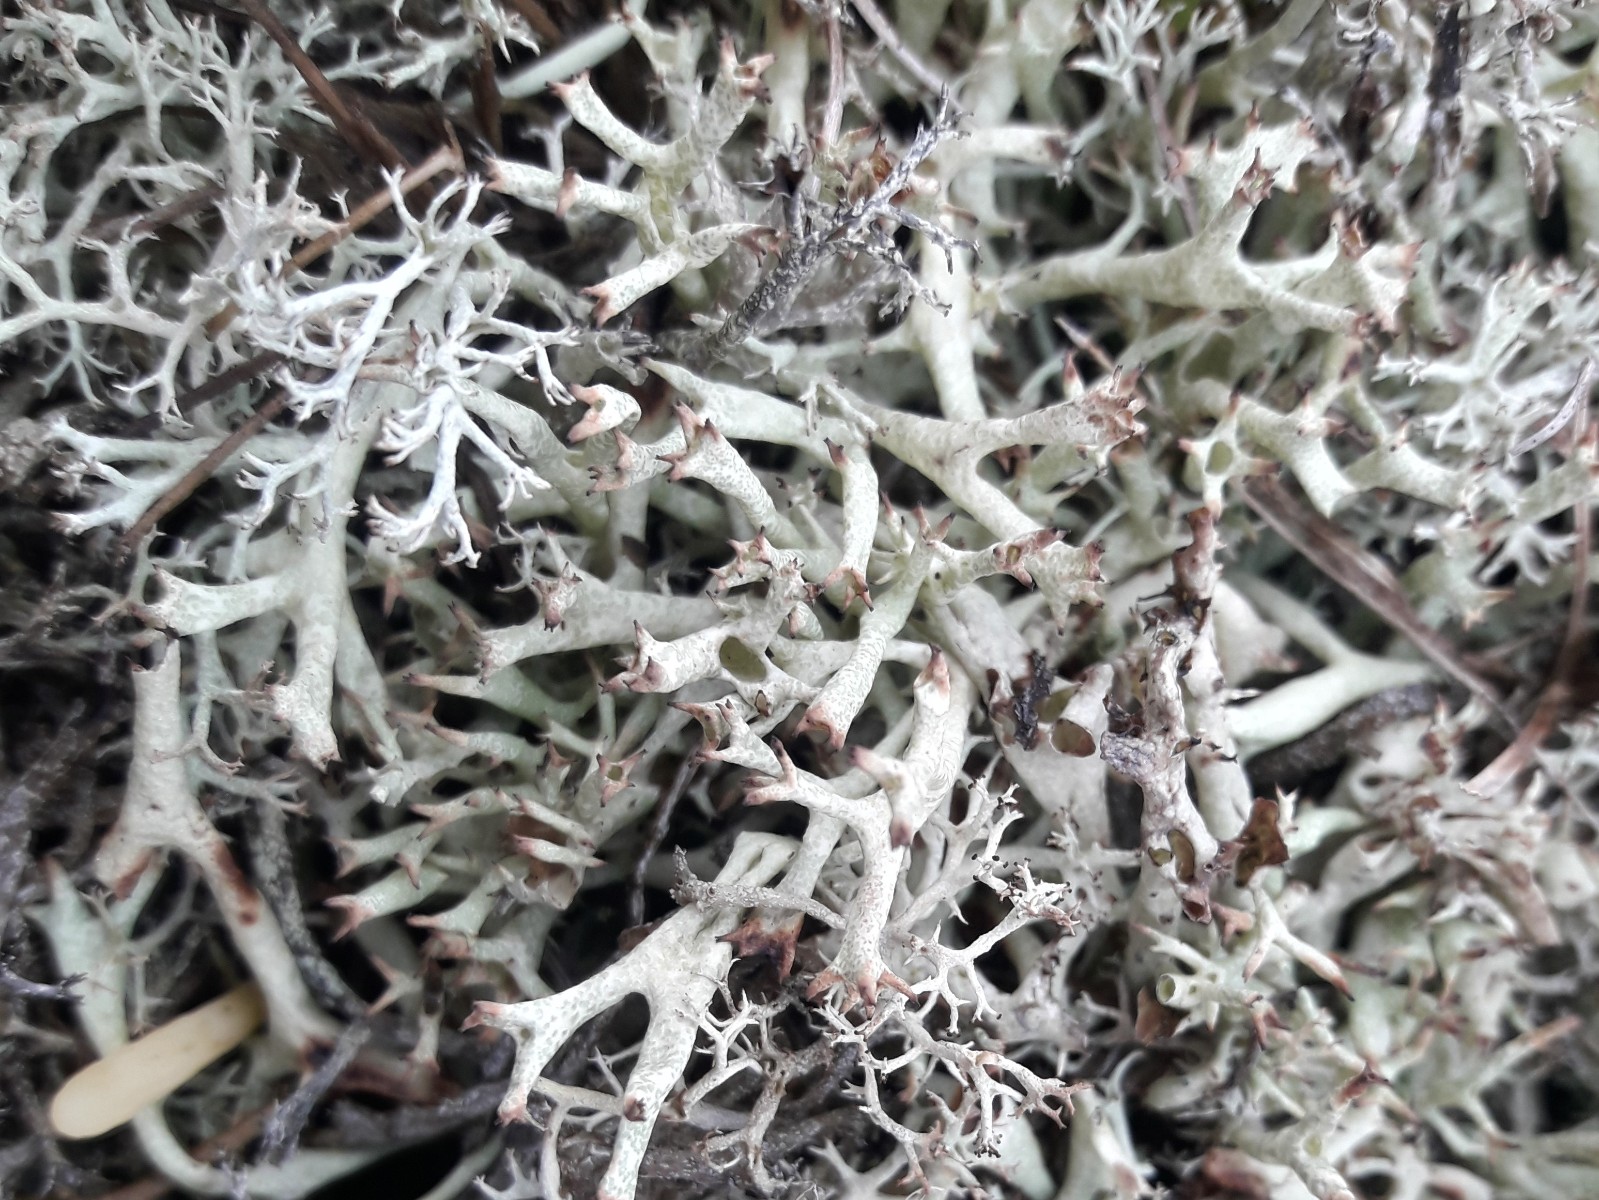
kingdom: Fungi
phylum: Ascomycota
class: Lecanoromycetes
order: Lecanorales
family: Cladoniaceae
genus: Cladonia
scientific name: Cladonia uncialis
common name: pigget bægerlav
